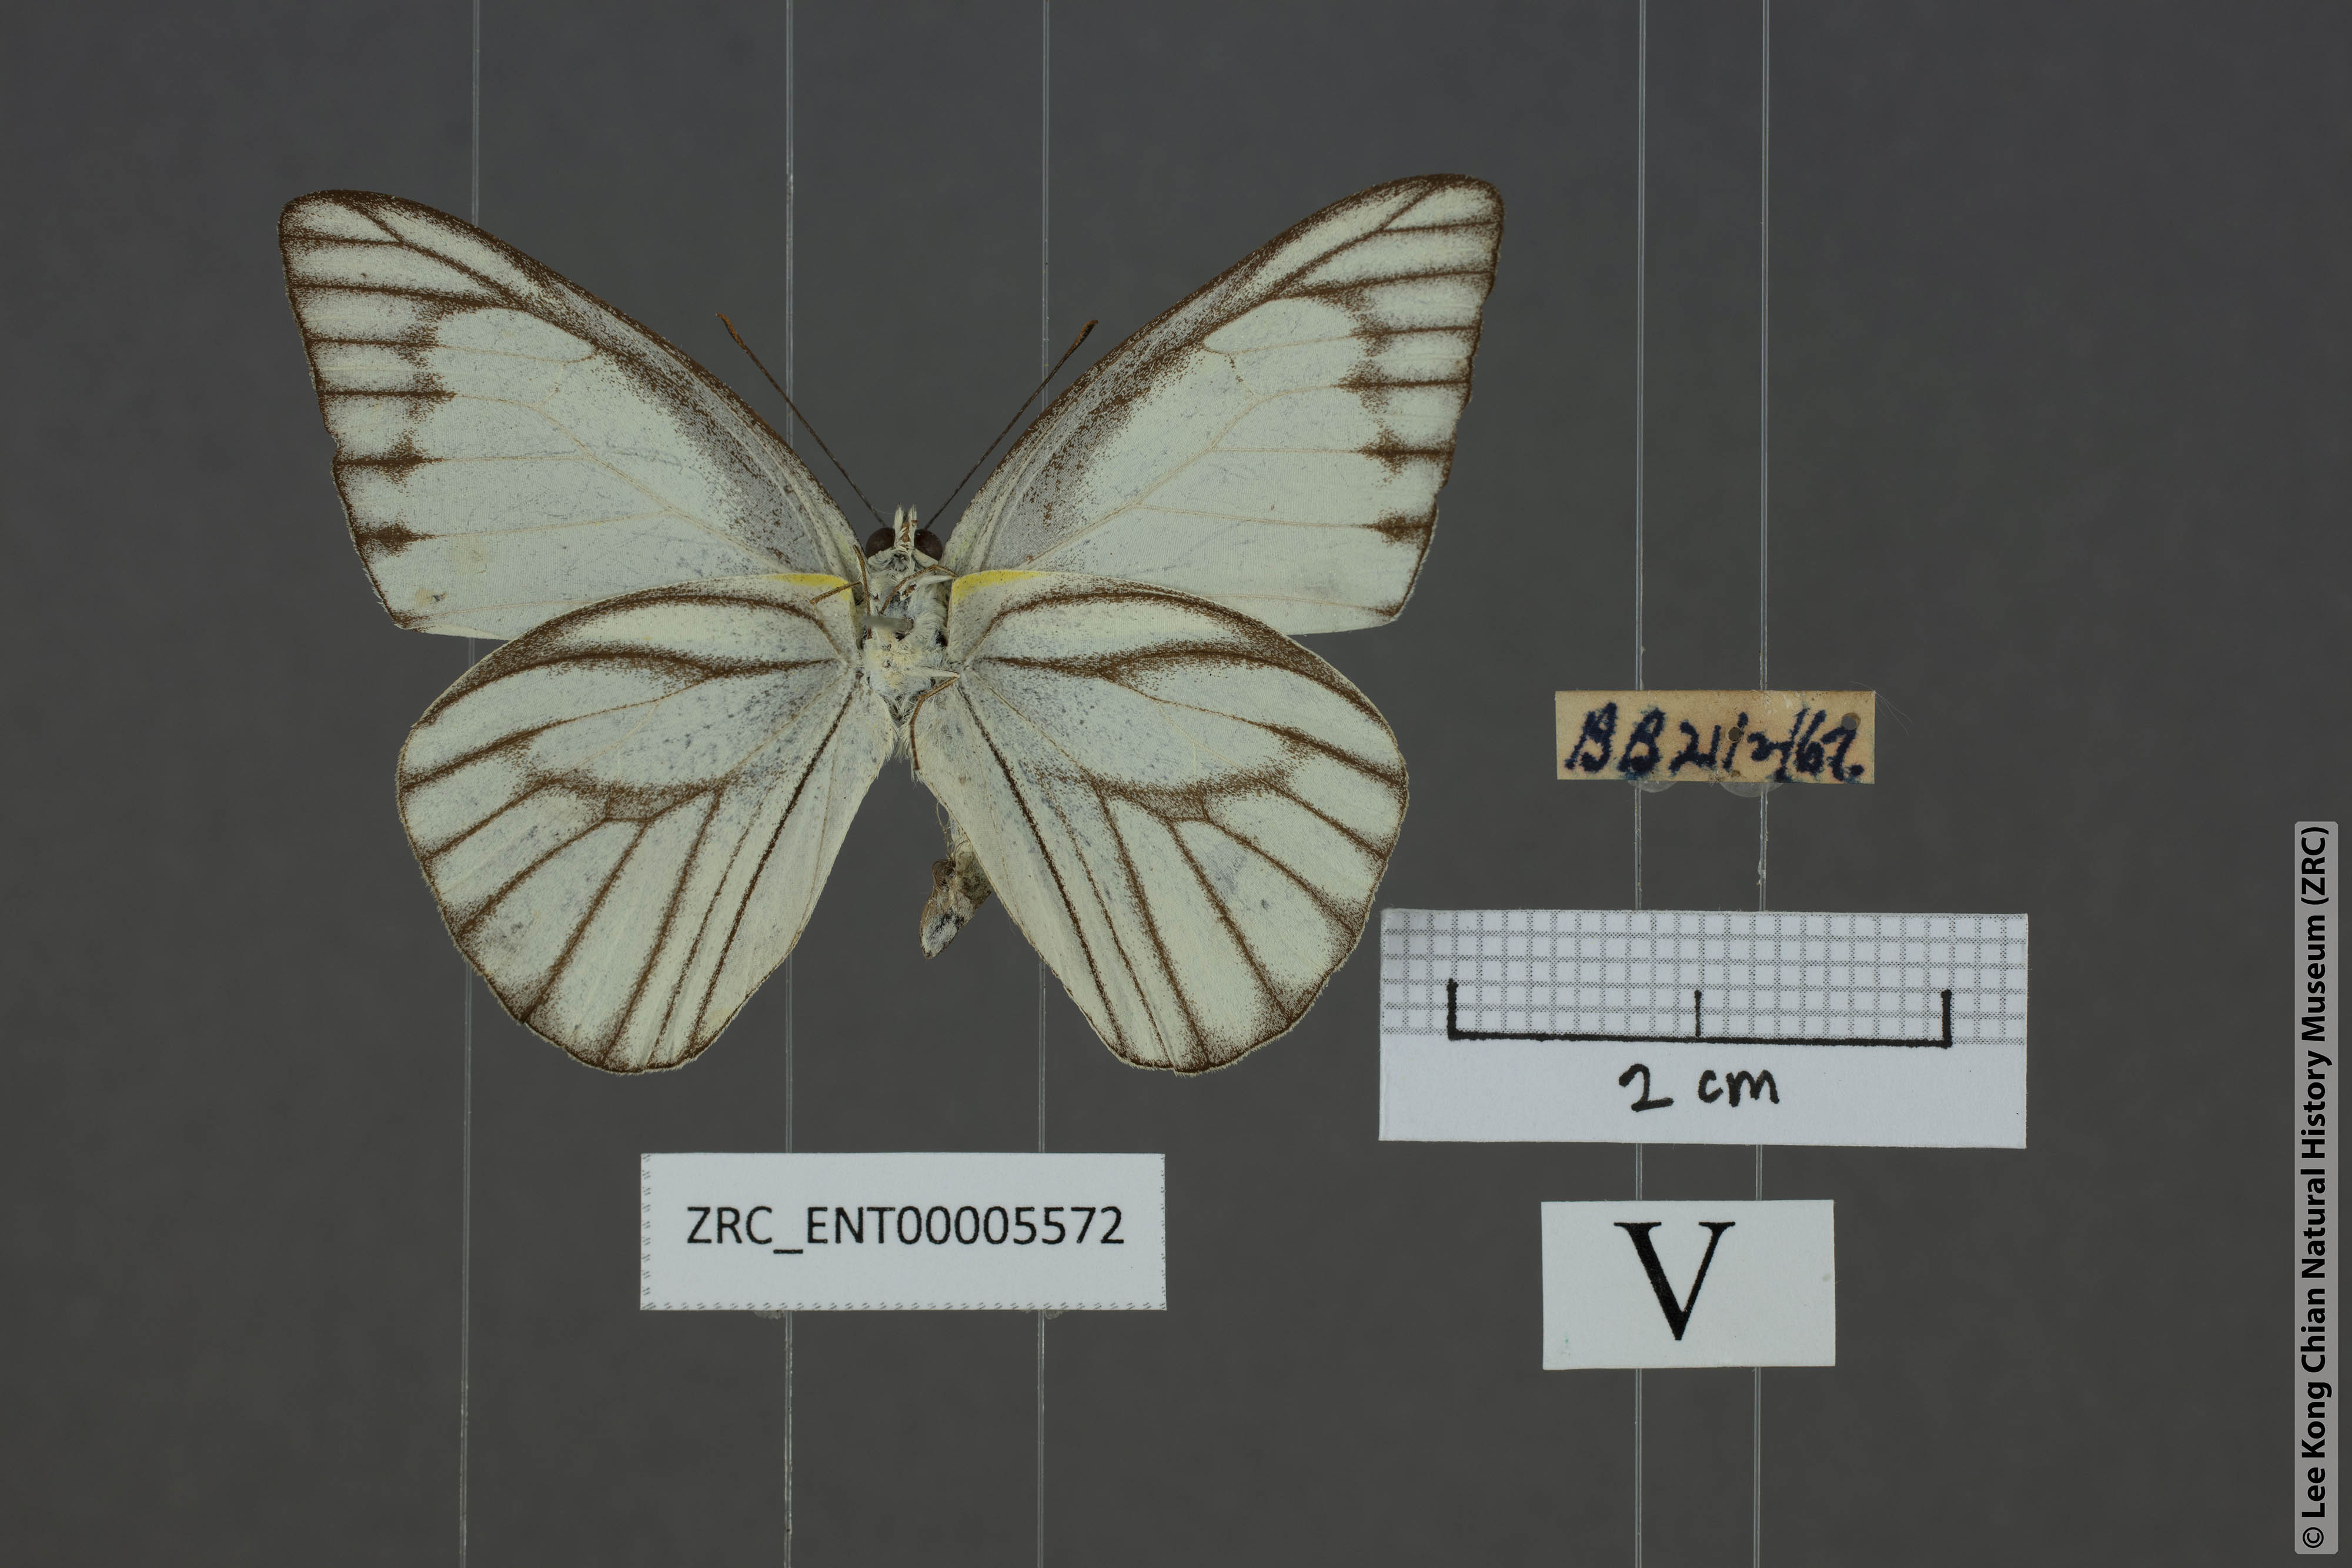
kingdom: Animalia
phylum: Arthropoda
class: Insecta
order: Lepidoptera
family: Pieridae
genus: Appias
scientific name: Appias libythea
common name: Striped albatross
